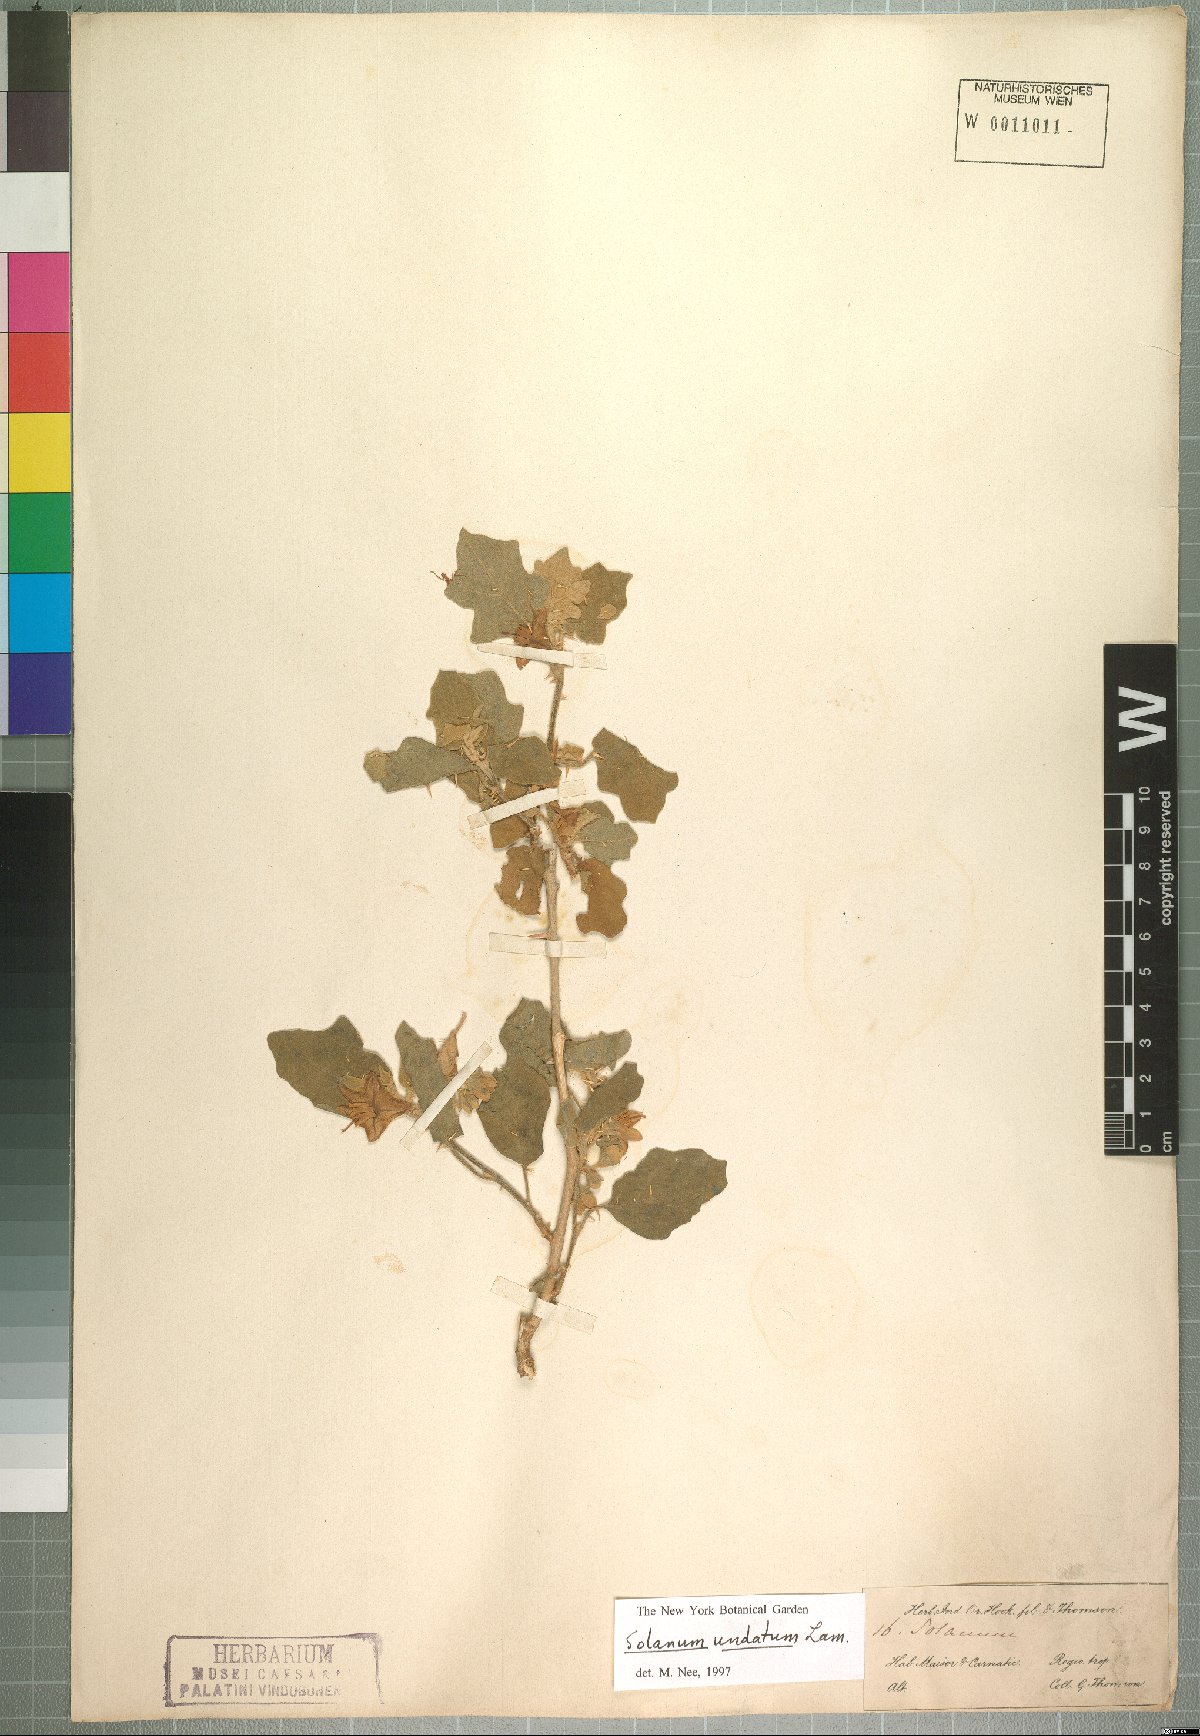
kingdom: Plantae
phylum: Tracheophyta
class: Magnoliopsida
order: Solanales
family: Solanaceae
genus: Solanum
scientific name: Solanum insanum
